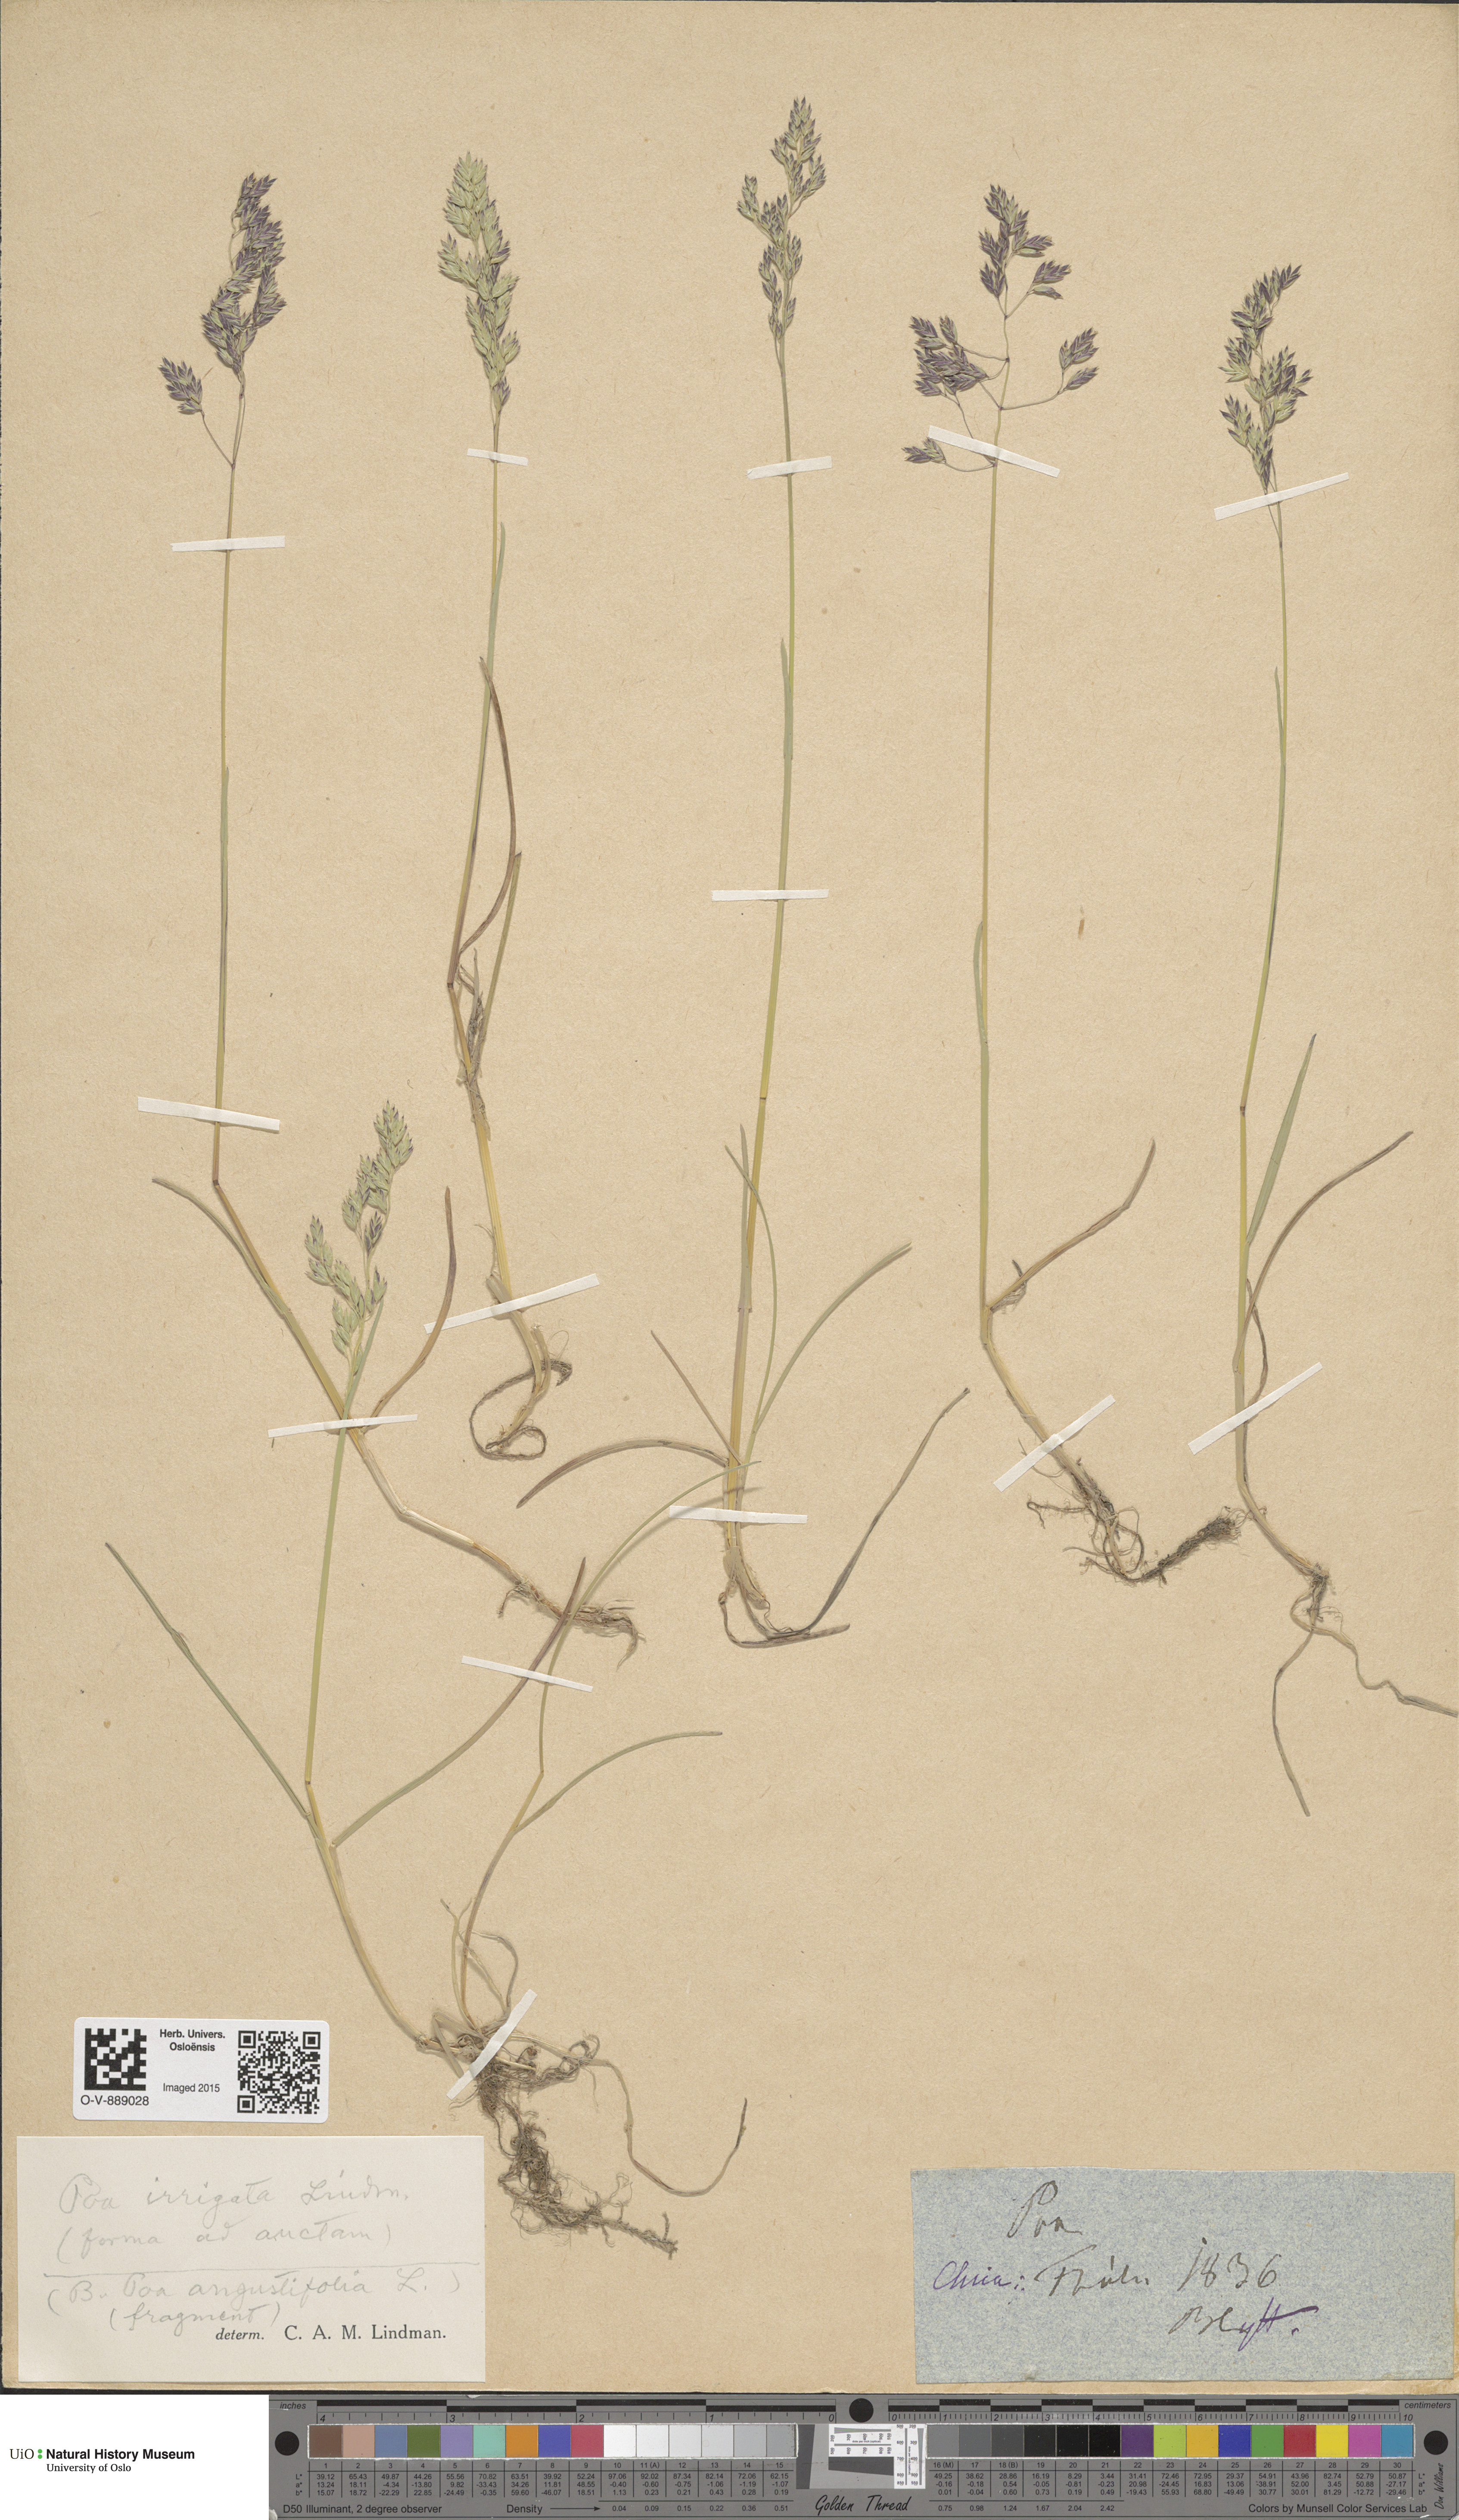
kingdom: Plantae
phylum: Tracheophyta
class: Liliopsida
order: Poales
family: Poaceae
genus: Poa
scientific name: Poa humilis
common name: Spreading meadow-grass
